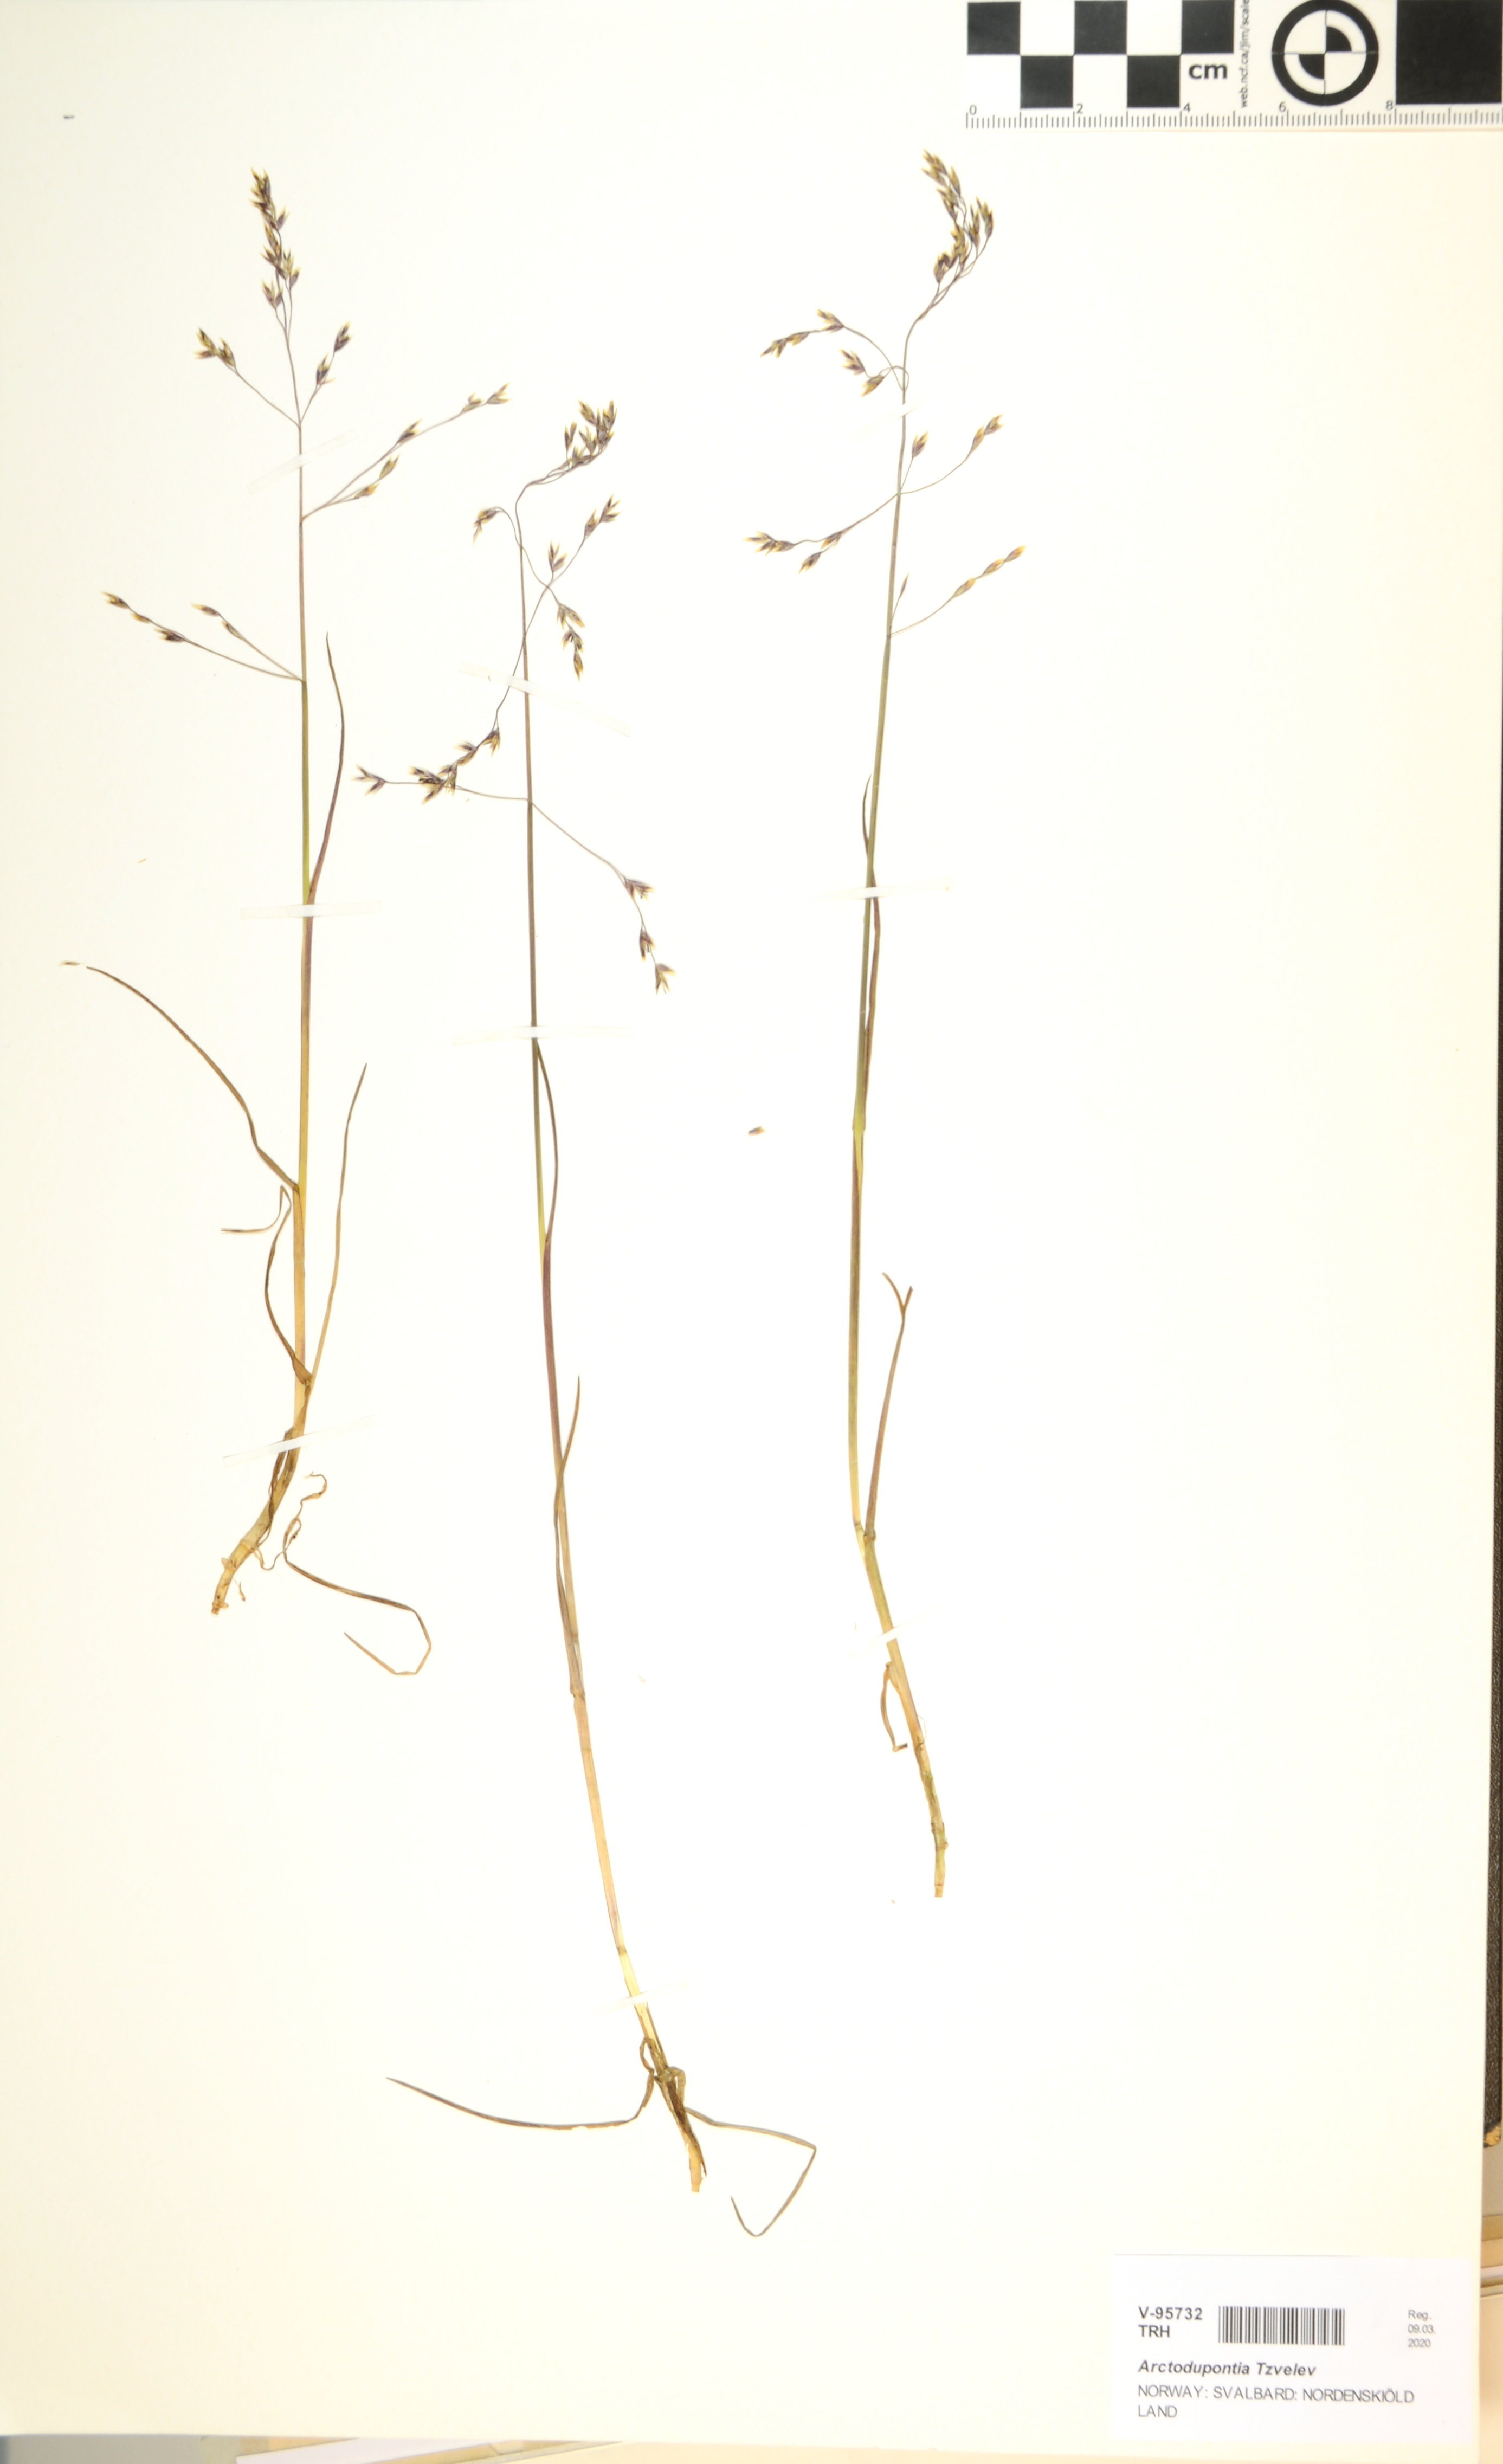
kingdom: Plantae
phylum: Tracheophyta
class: Liliopsida
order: Poales
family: Poaceae
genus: Arctodupontia
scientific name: Arctodupontia
